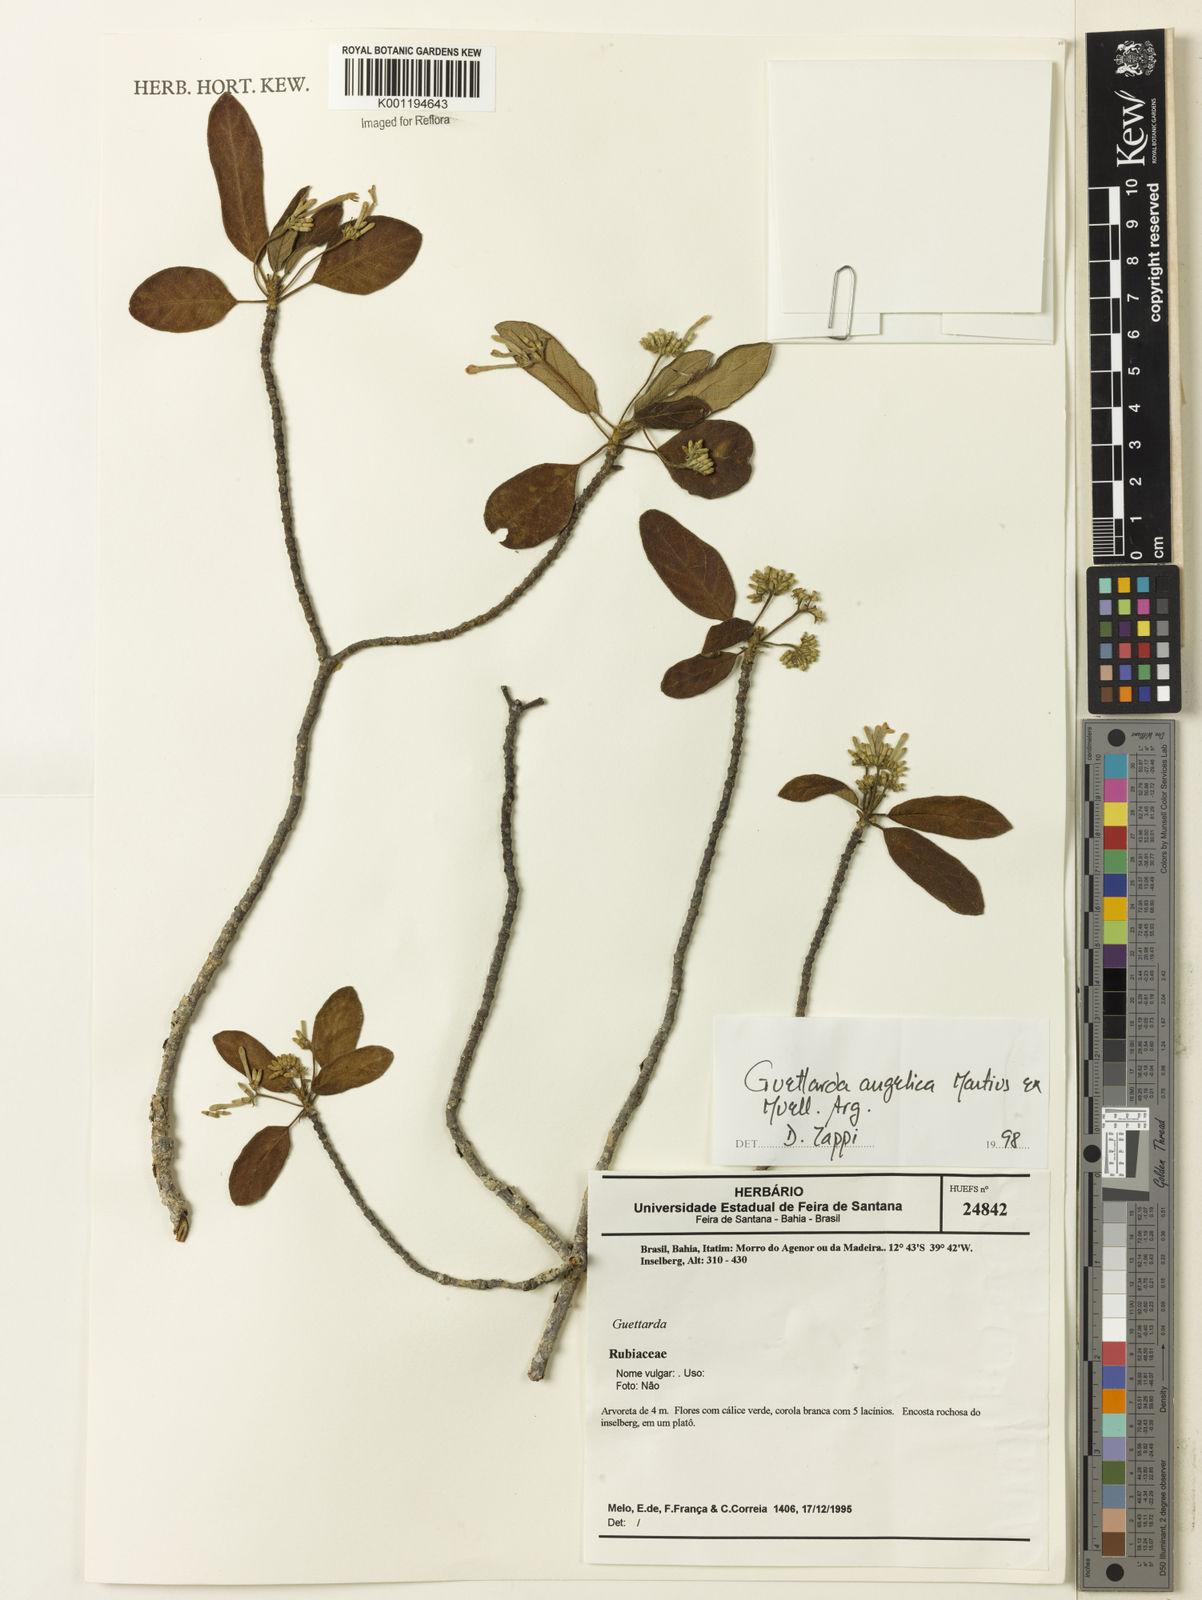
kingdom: Plantae
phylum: Tracheophyta
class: Magnoliopsida
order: Gentianales
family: Rubiaceae
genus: Guettarda
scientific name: Guettarda
